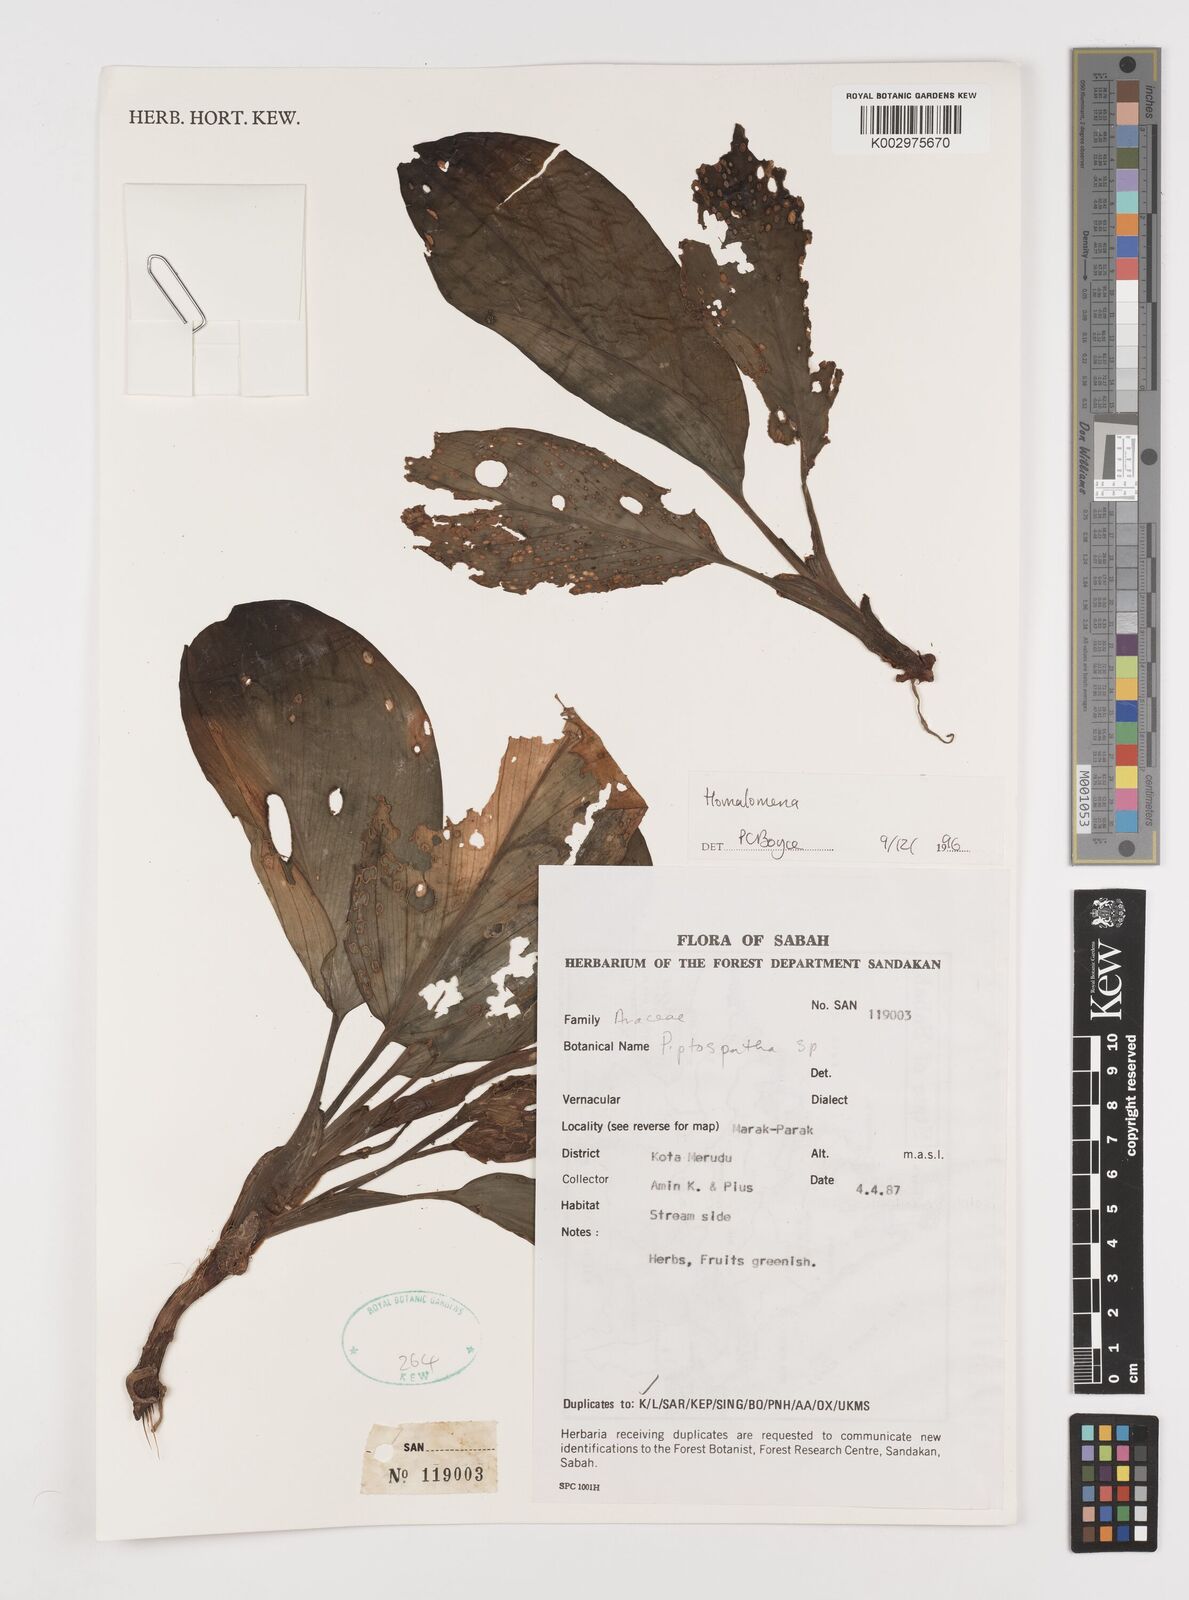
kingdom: Plantae
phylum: Tracheophyta
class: Liliopsida
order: Alismatales
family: Araceae
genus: Homalomena
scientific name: Homalomena
